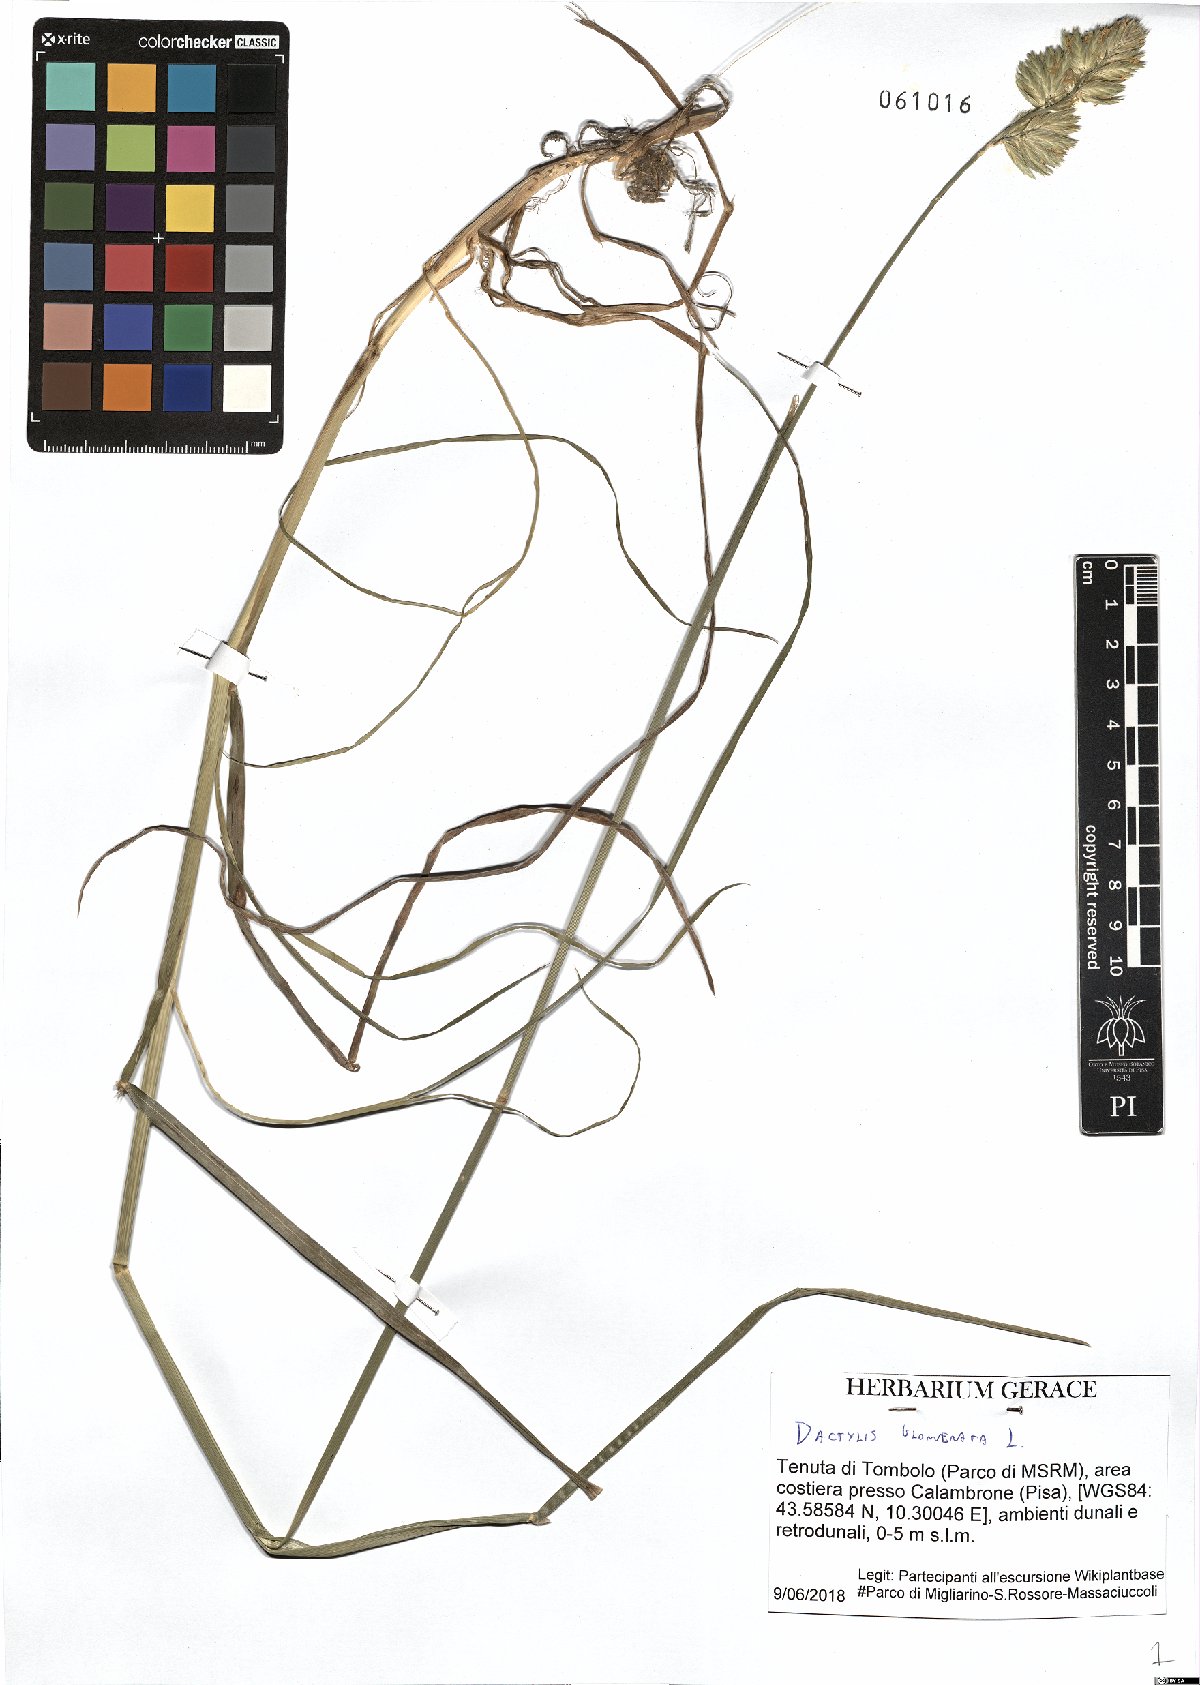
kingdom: Plantae
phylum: Tracheophyta
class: Liliopsida
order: Poales
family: Poaceae
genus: Dactylis
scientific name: Dactylis glomerata
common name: Orchardgrass
